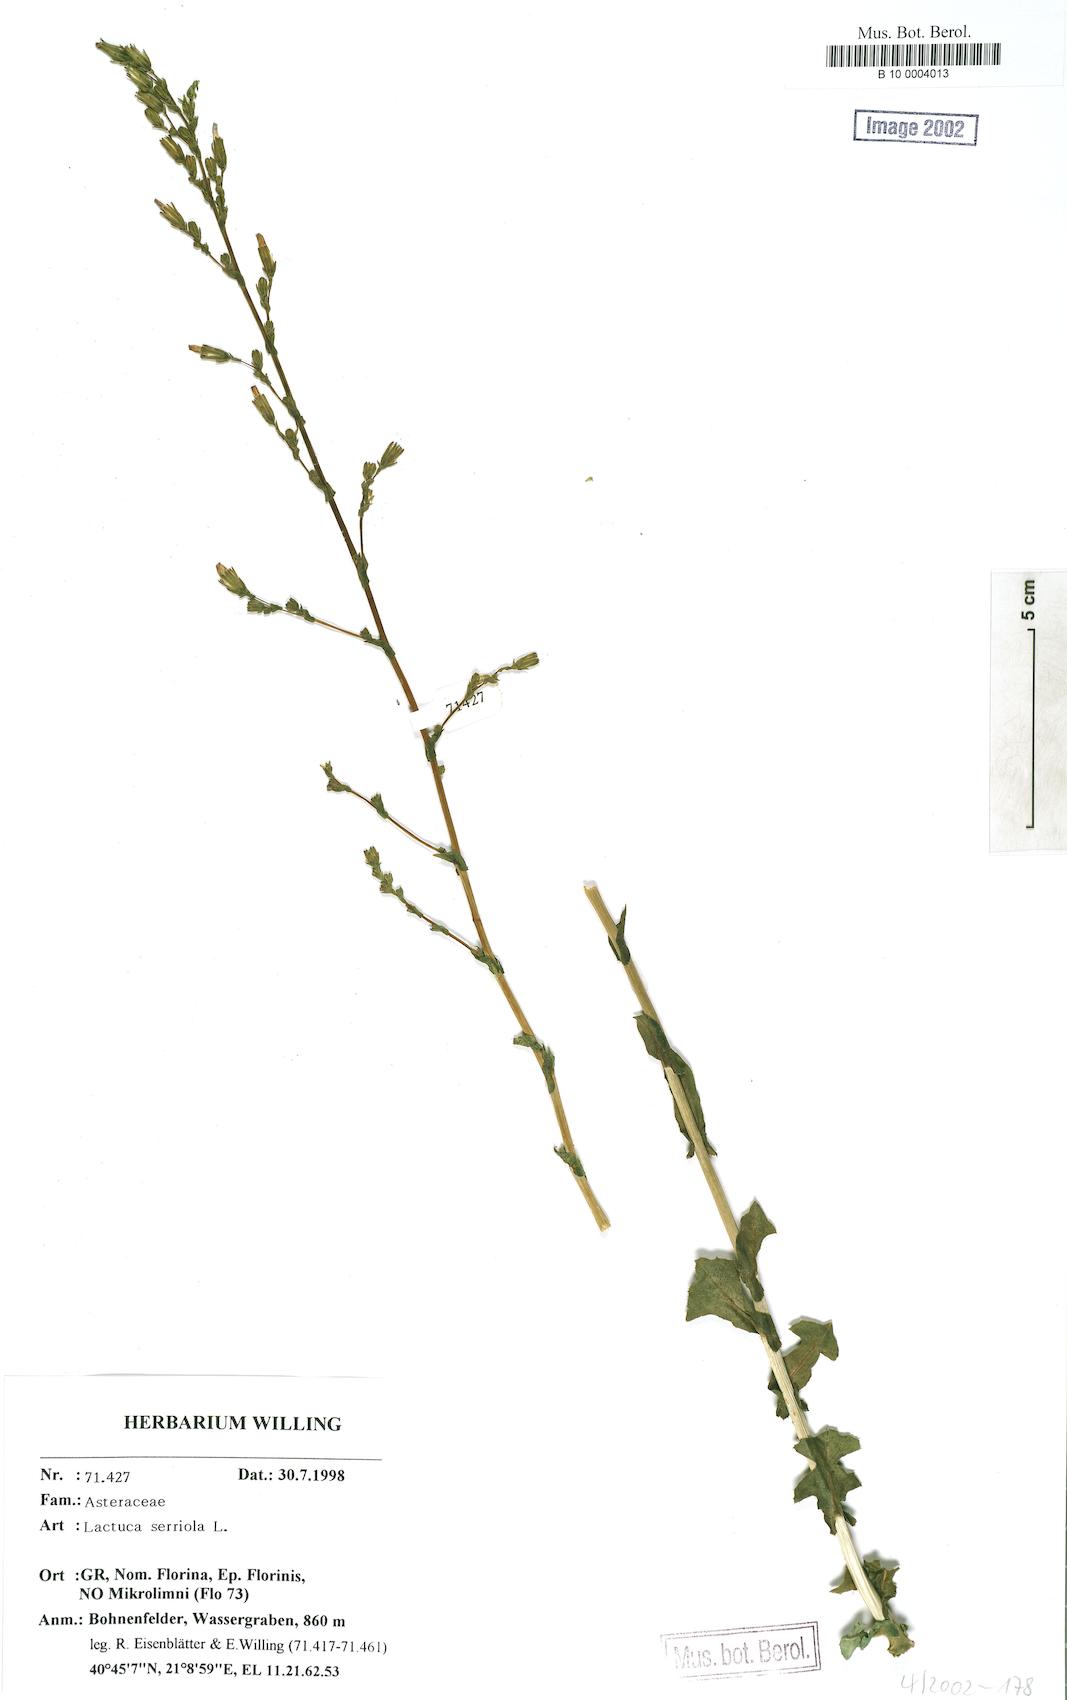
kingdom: Plantae
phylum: Tracheophyta
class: Magnoliopsida
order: Asterales
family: Asteraceae
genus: Lactuca
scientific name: Lactuca serriola
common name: Prickly lettuce
